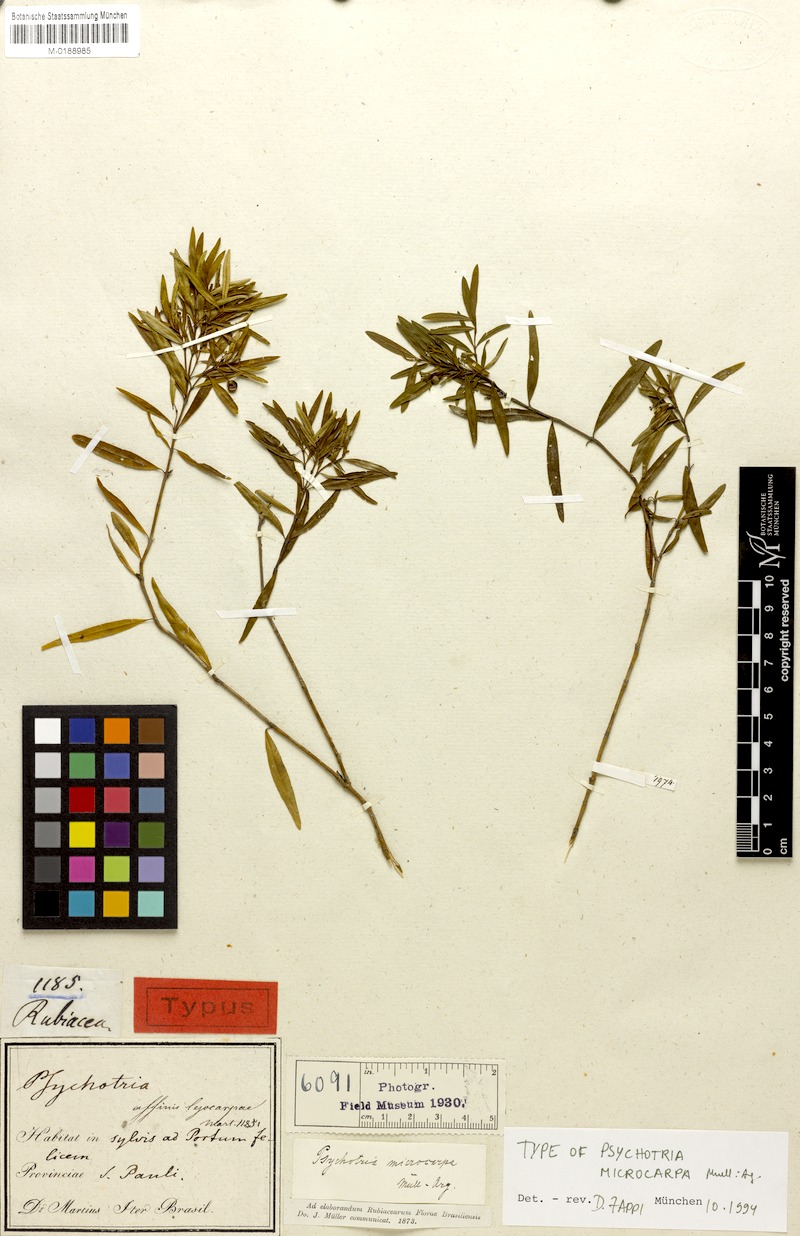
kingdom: Plantae
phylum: Tracheophyta
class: Magnoliopsida
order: Gentianales
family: Rubiaceae
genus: Psychotria
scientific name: Psychotria microcarpa
